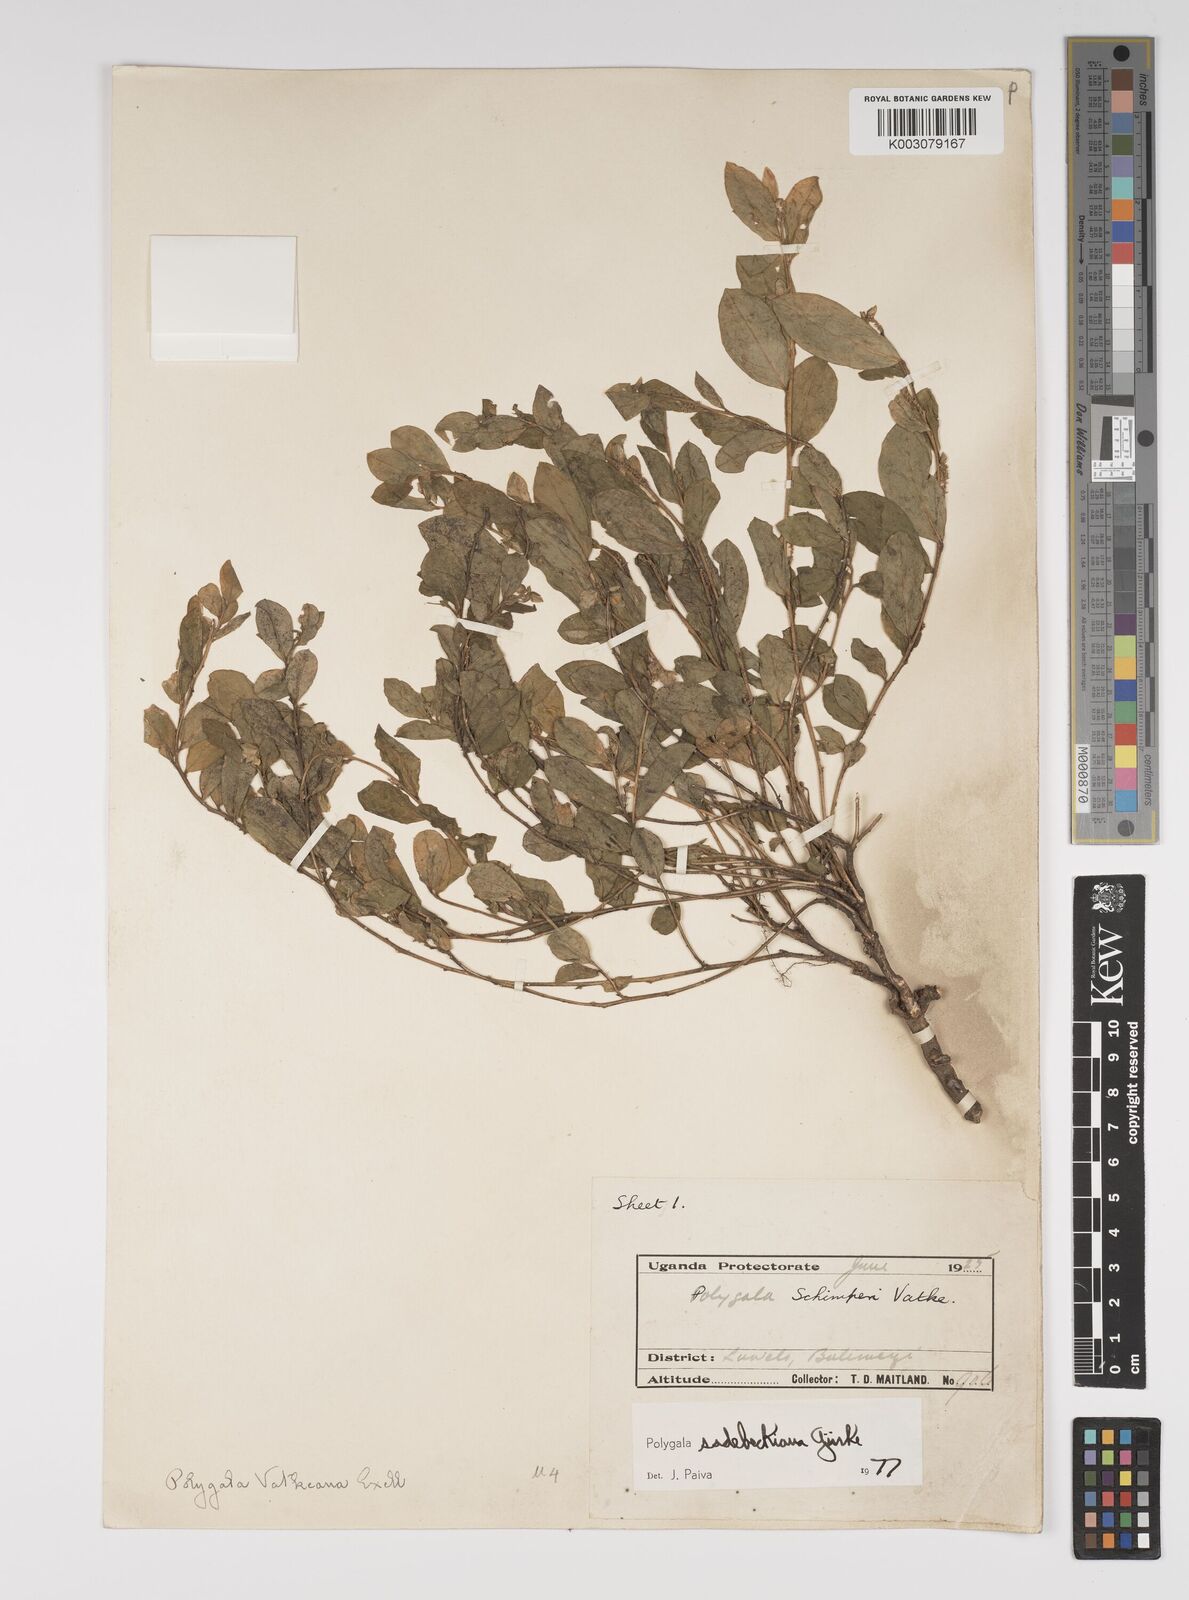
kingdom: Plantae
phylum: Tracheophyta
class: Magnoliopsida
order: Fabales
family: Polygalaceae
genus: Polygala
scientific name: Polygala sadebeckiana
